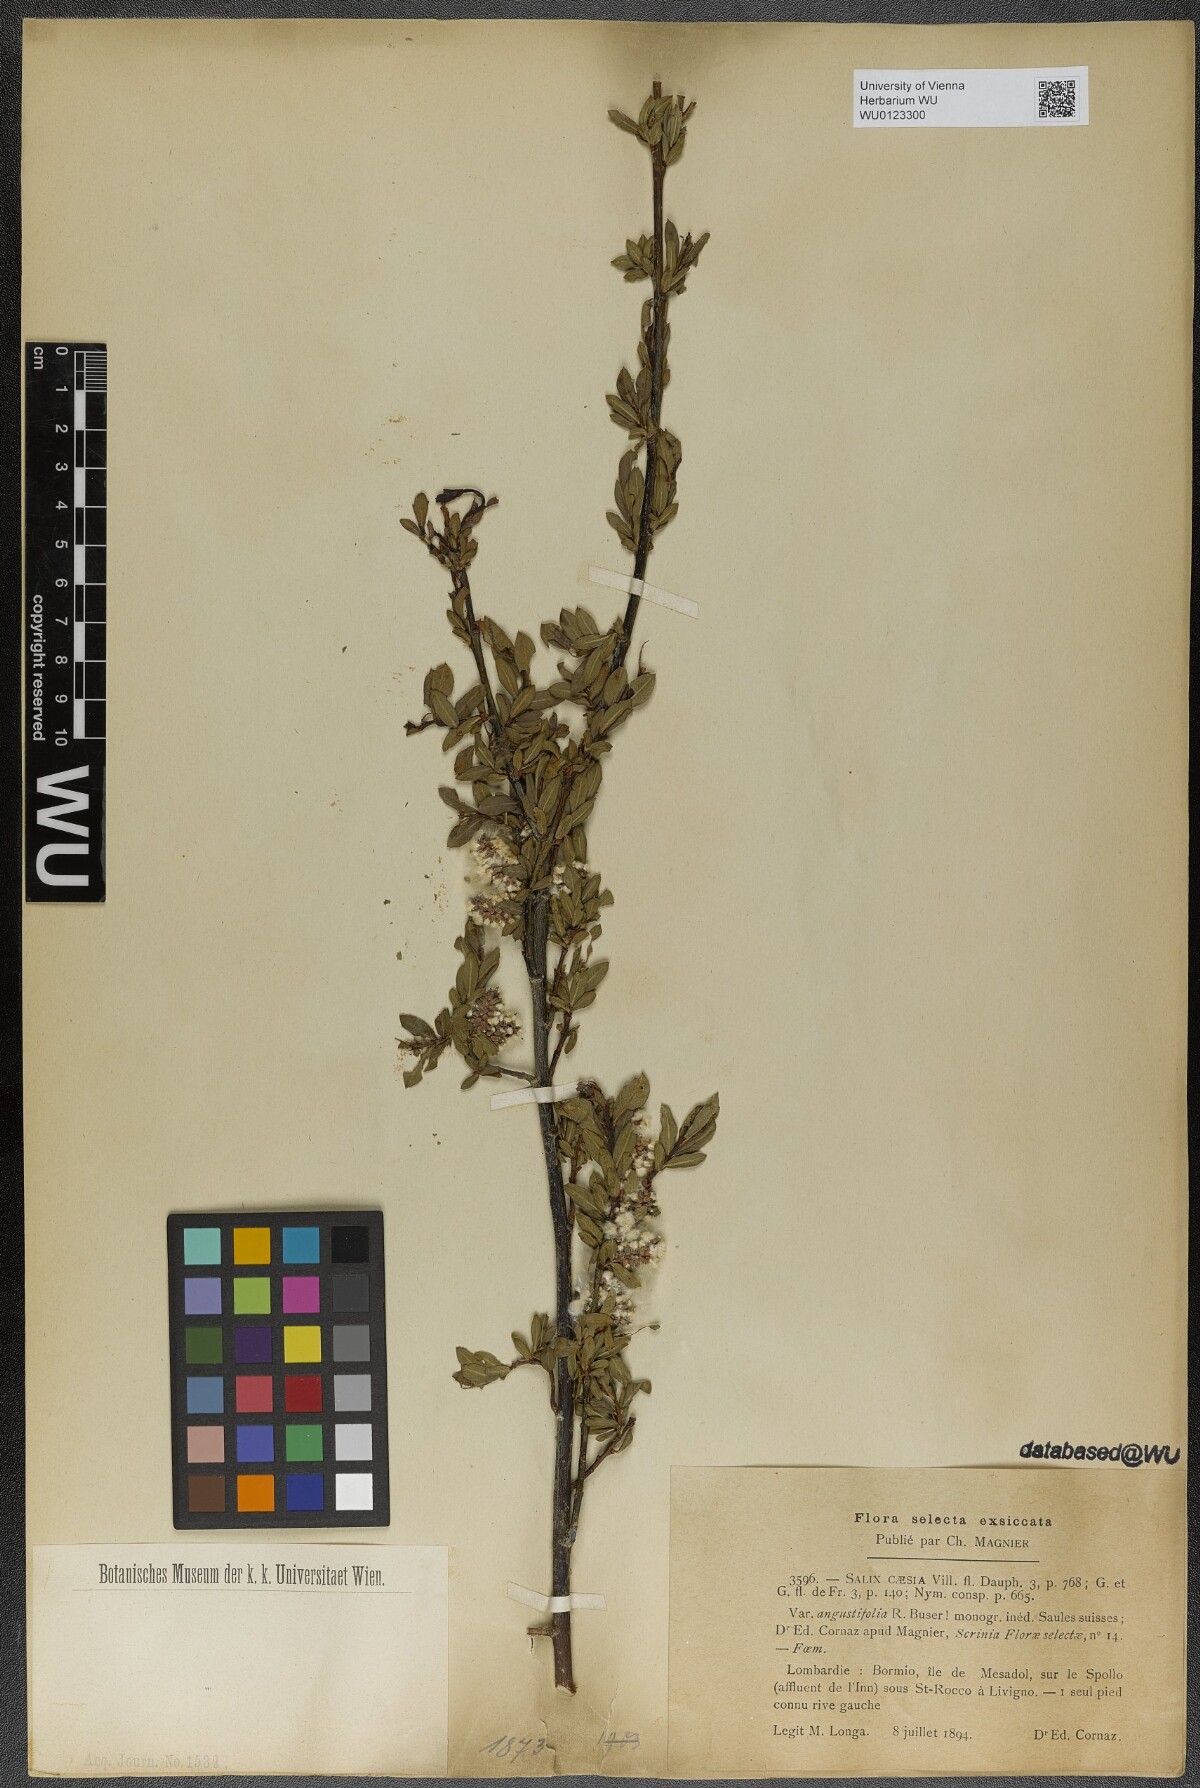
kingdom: Plantae
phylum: Tracheophyta
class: Magnoliopsida
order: Malpighiales
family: Salicaceae
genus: Salix
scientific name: Salix caesia
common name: Blue willow
